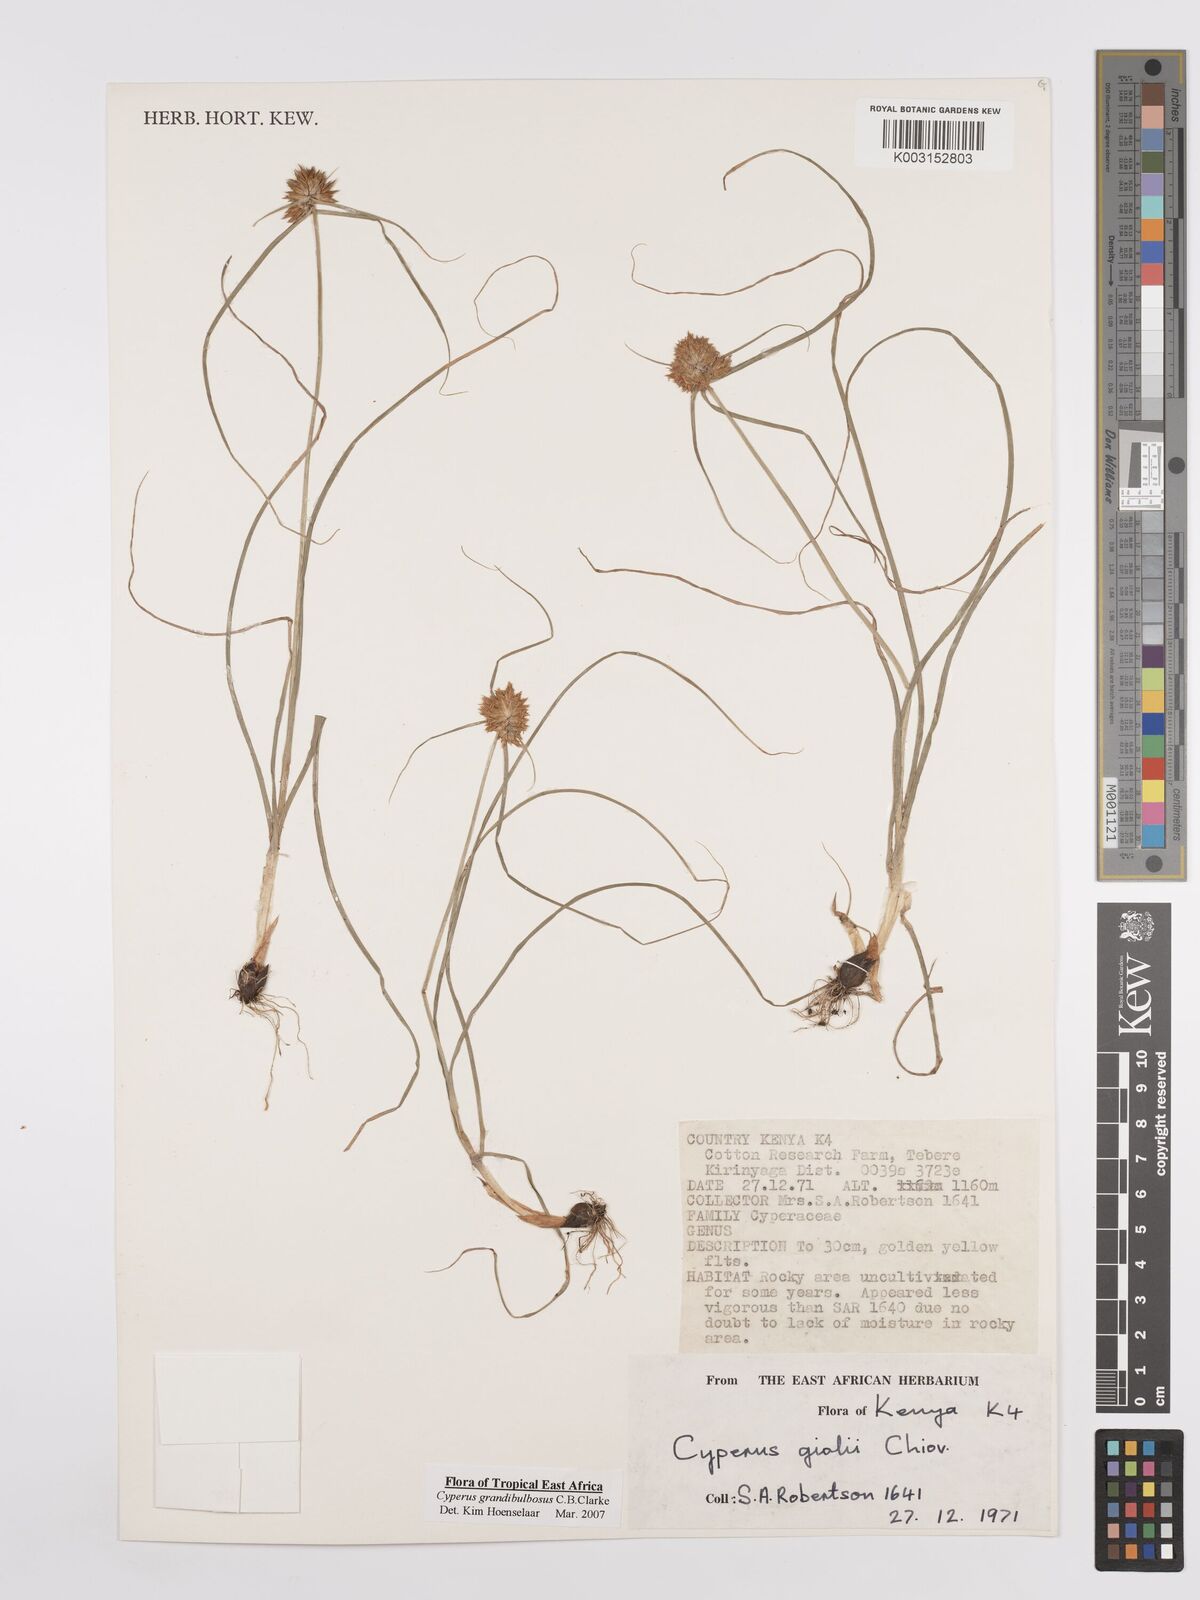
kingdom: Plantae
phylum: Tracheophyta
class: Liliopsida
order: Poales
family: Cyperaceae
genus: Cyperus
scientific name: Cyperus grandibulbosus
